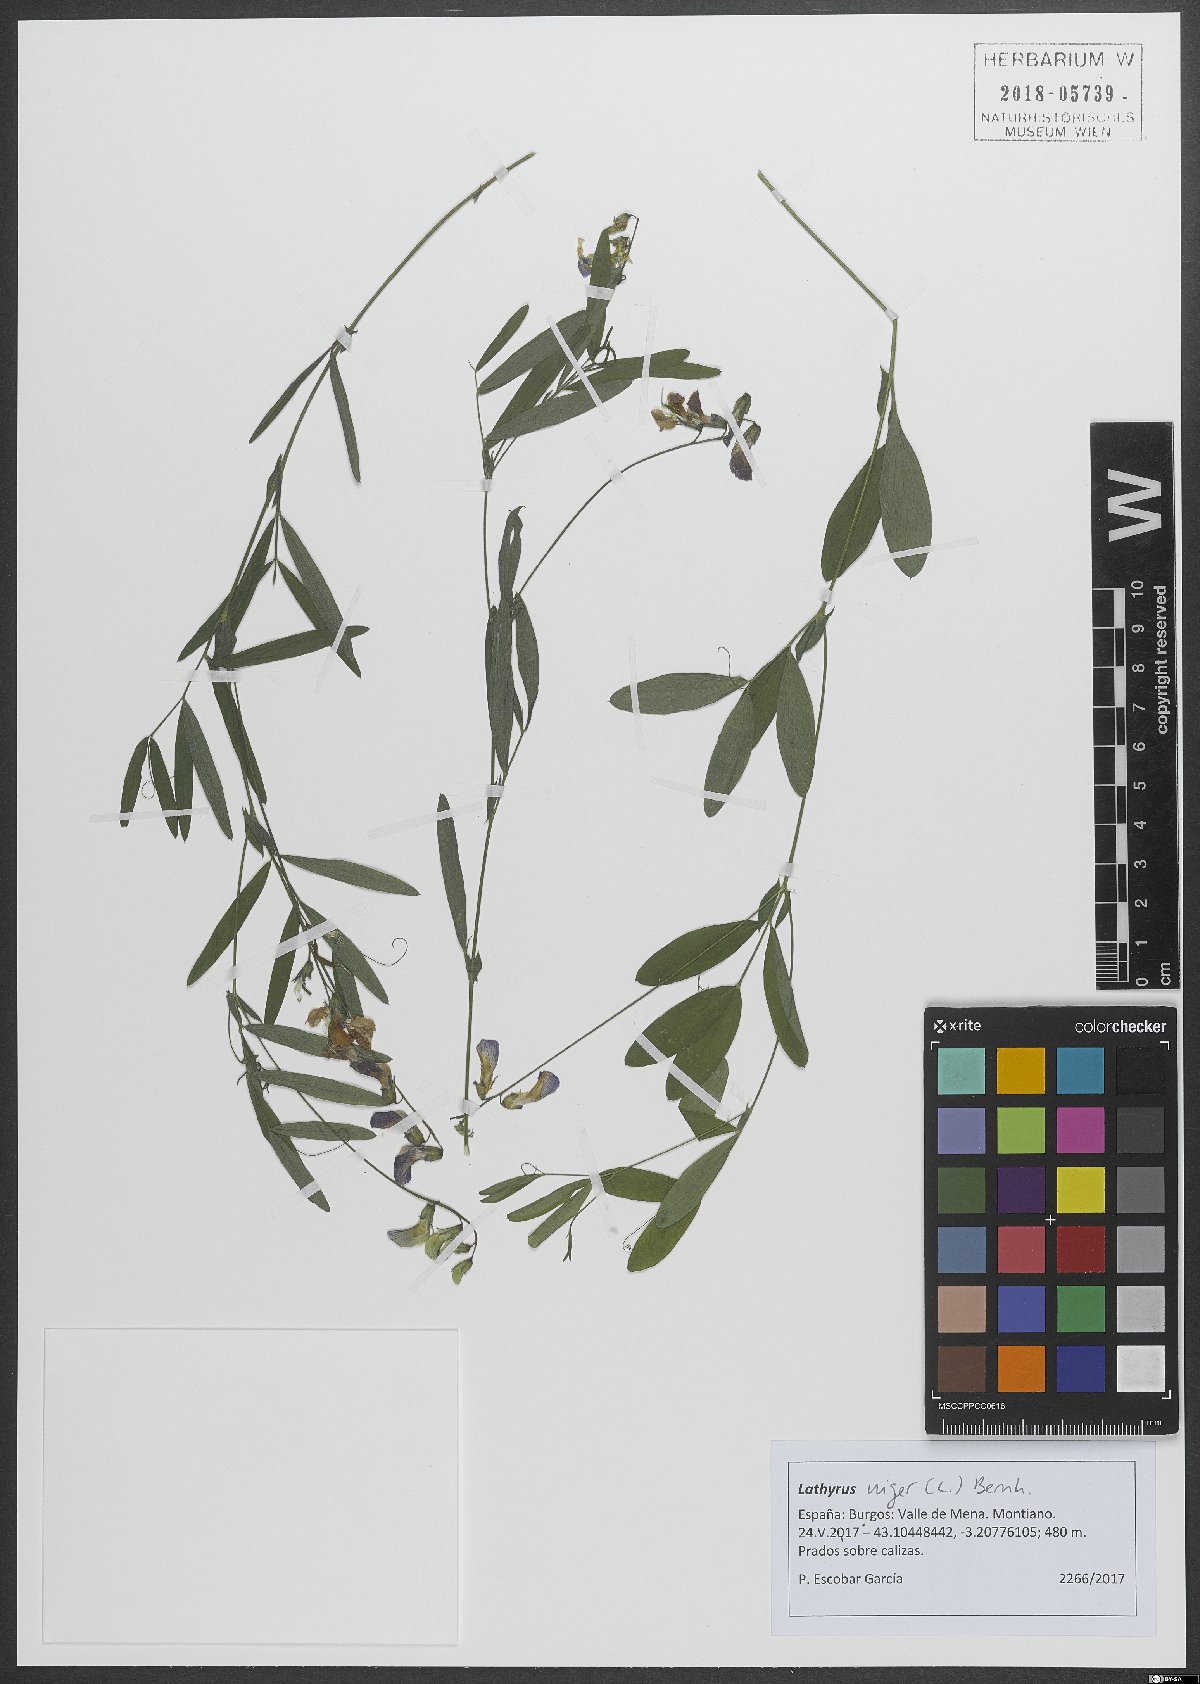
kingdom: Plantae
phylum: Tracheophyta
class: Magnoliopsida
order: Fabales
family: Fabaceae
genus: Lathyrus
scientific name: Lathyrus niger
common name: Black pea
